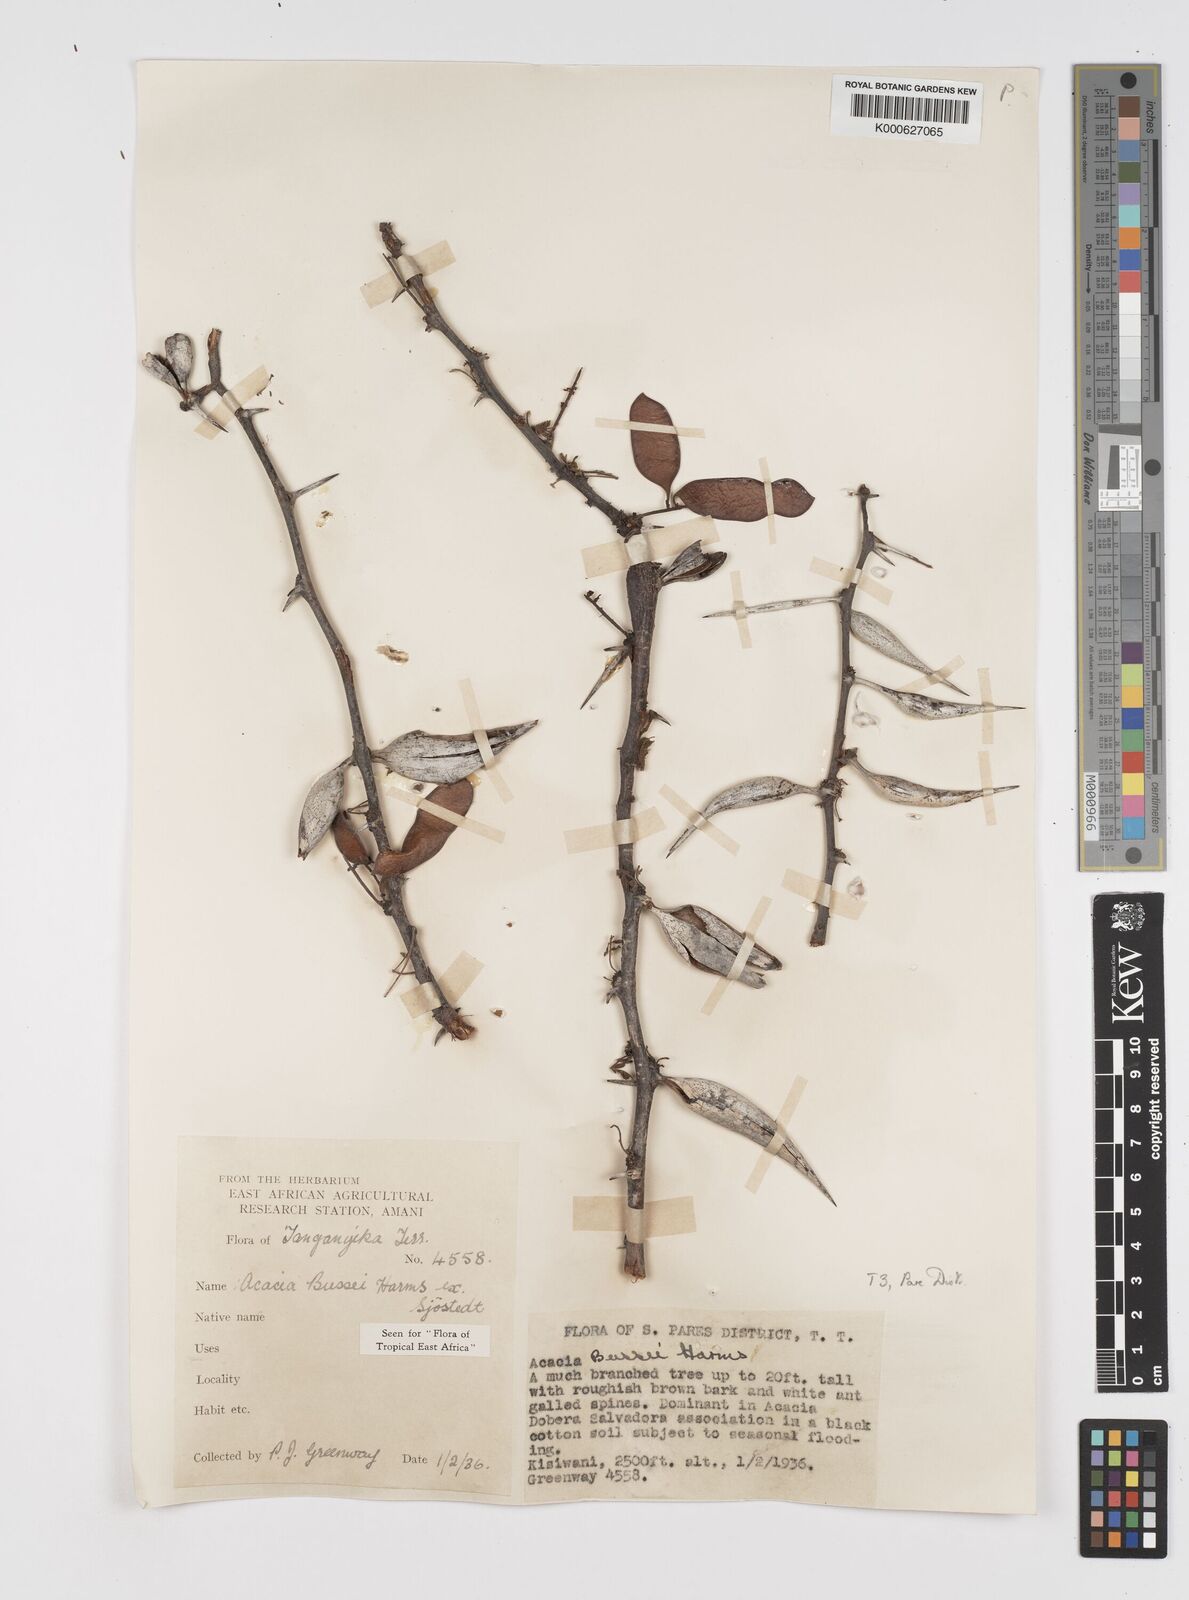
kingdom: Plantae
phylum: Tracheophyta
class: Magnoliopsida
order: Fabales
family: Fabaceae
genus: Vachellia
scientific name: Vachellia bussei
